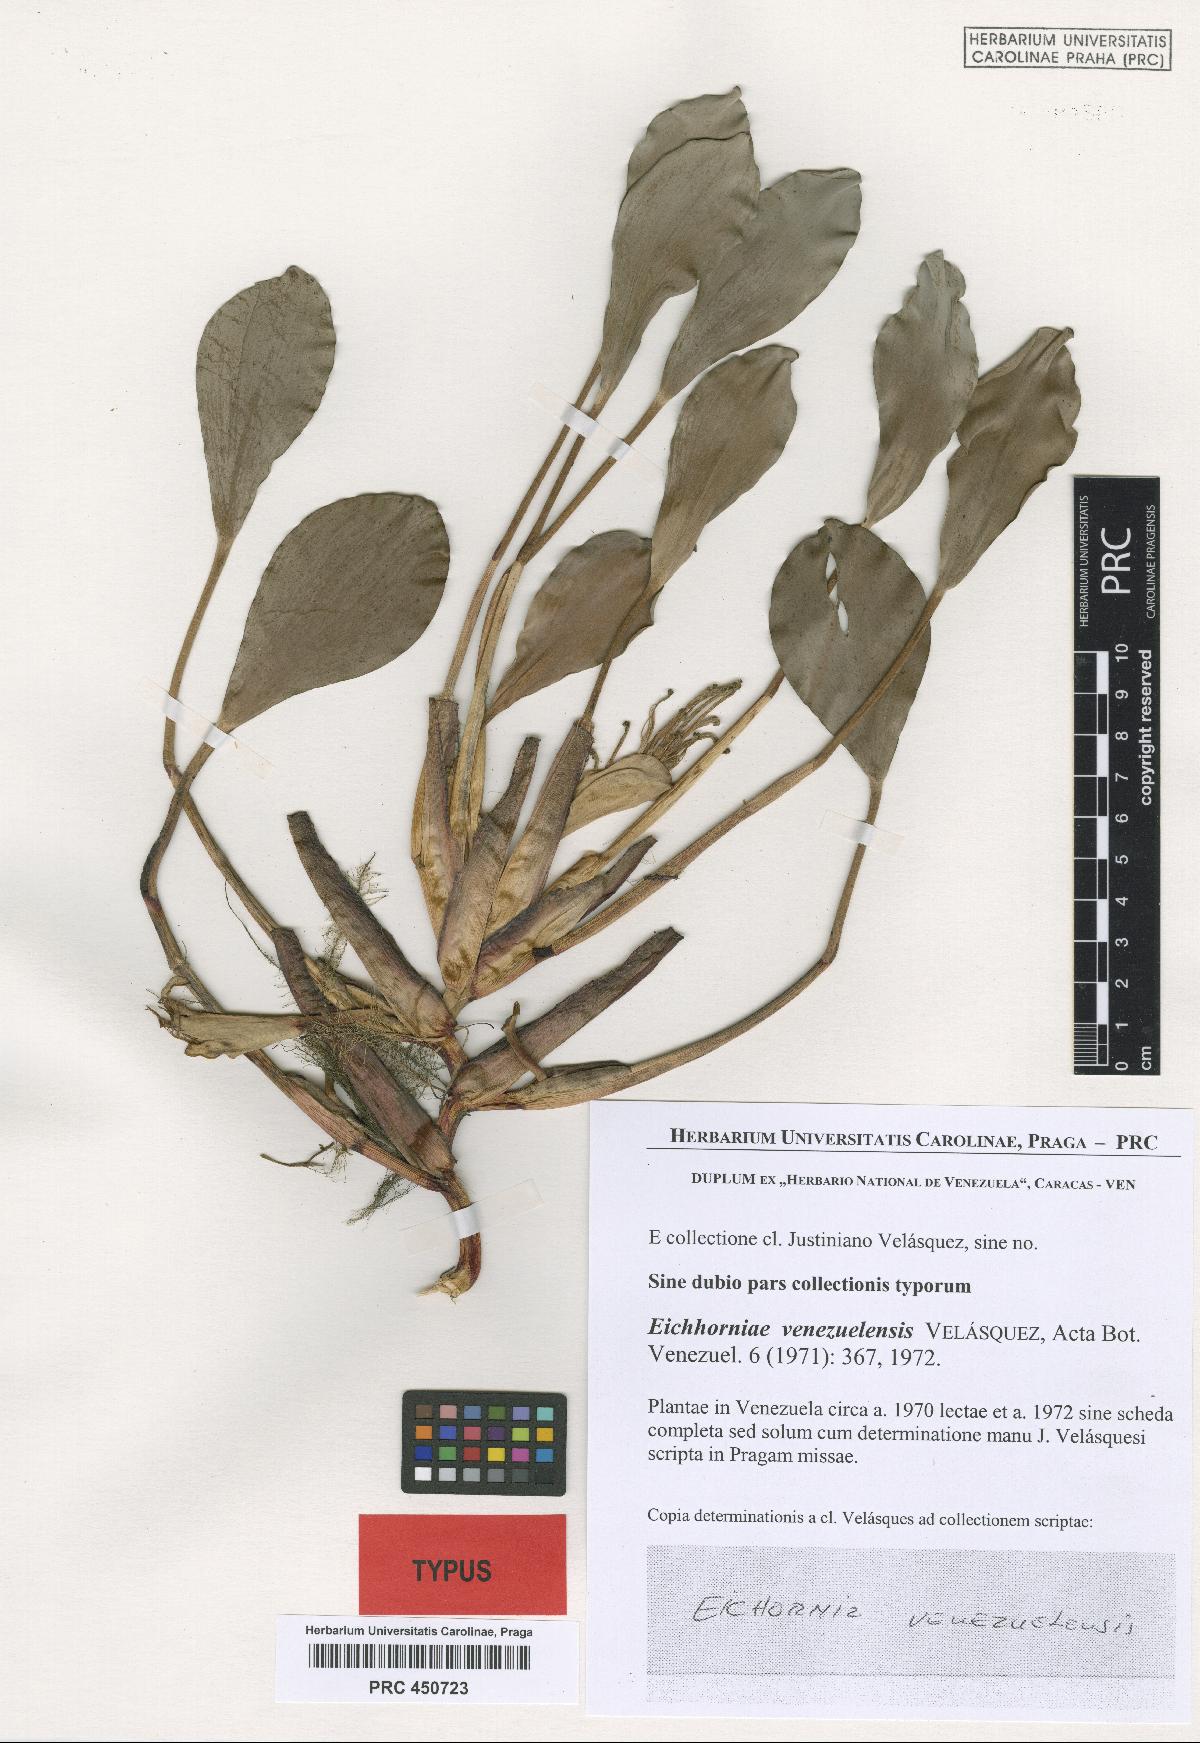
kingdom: Plantae
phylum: Tracheophyta
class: Liliopsida
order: Commelinales
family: Pontederiaceae
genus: Pontederia
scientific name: Pontederia heterosperma
